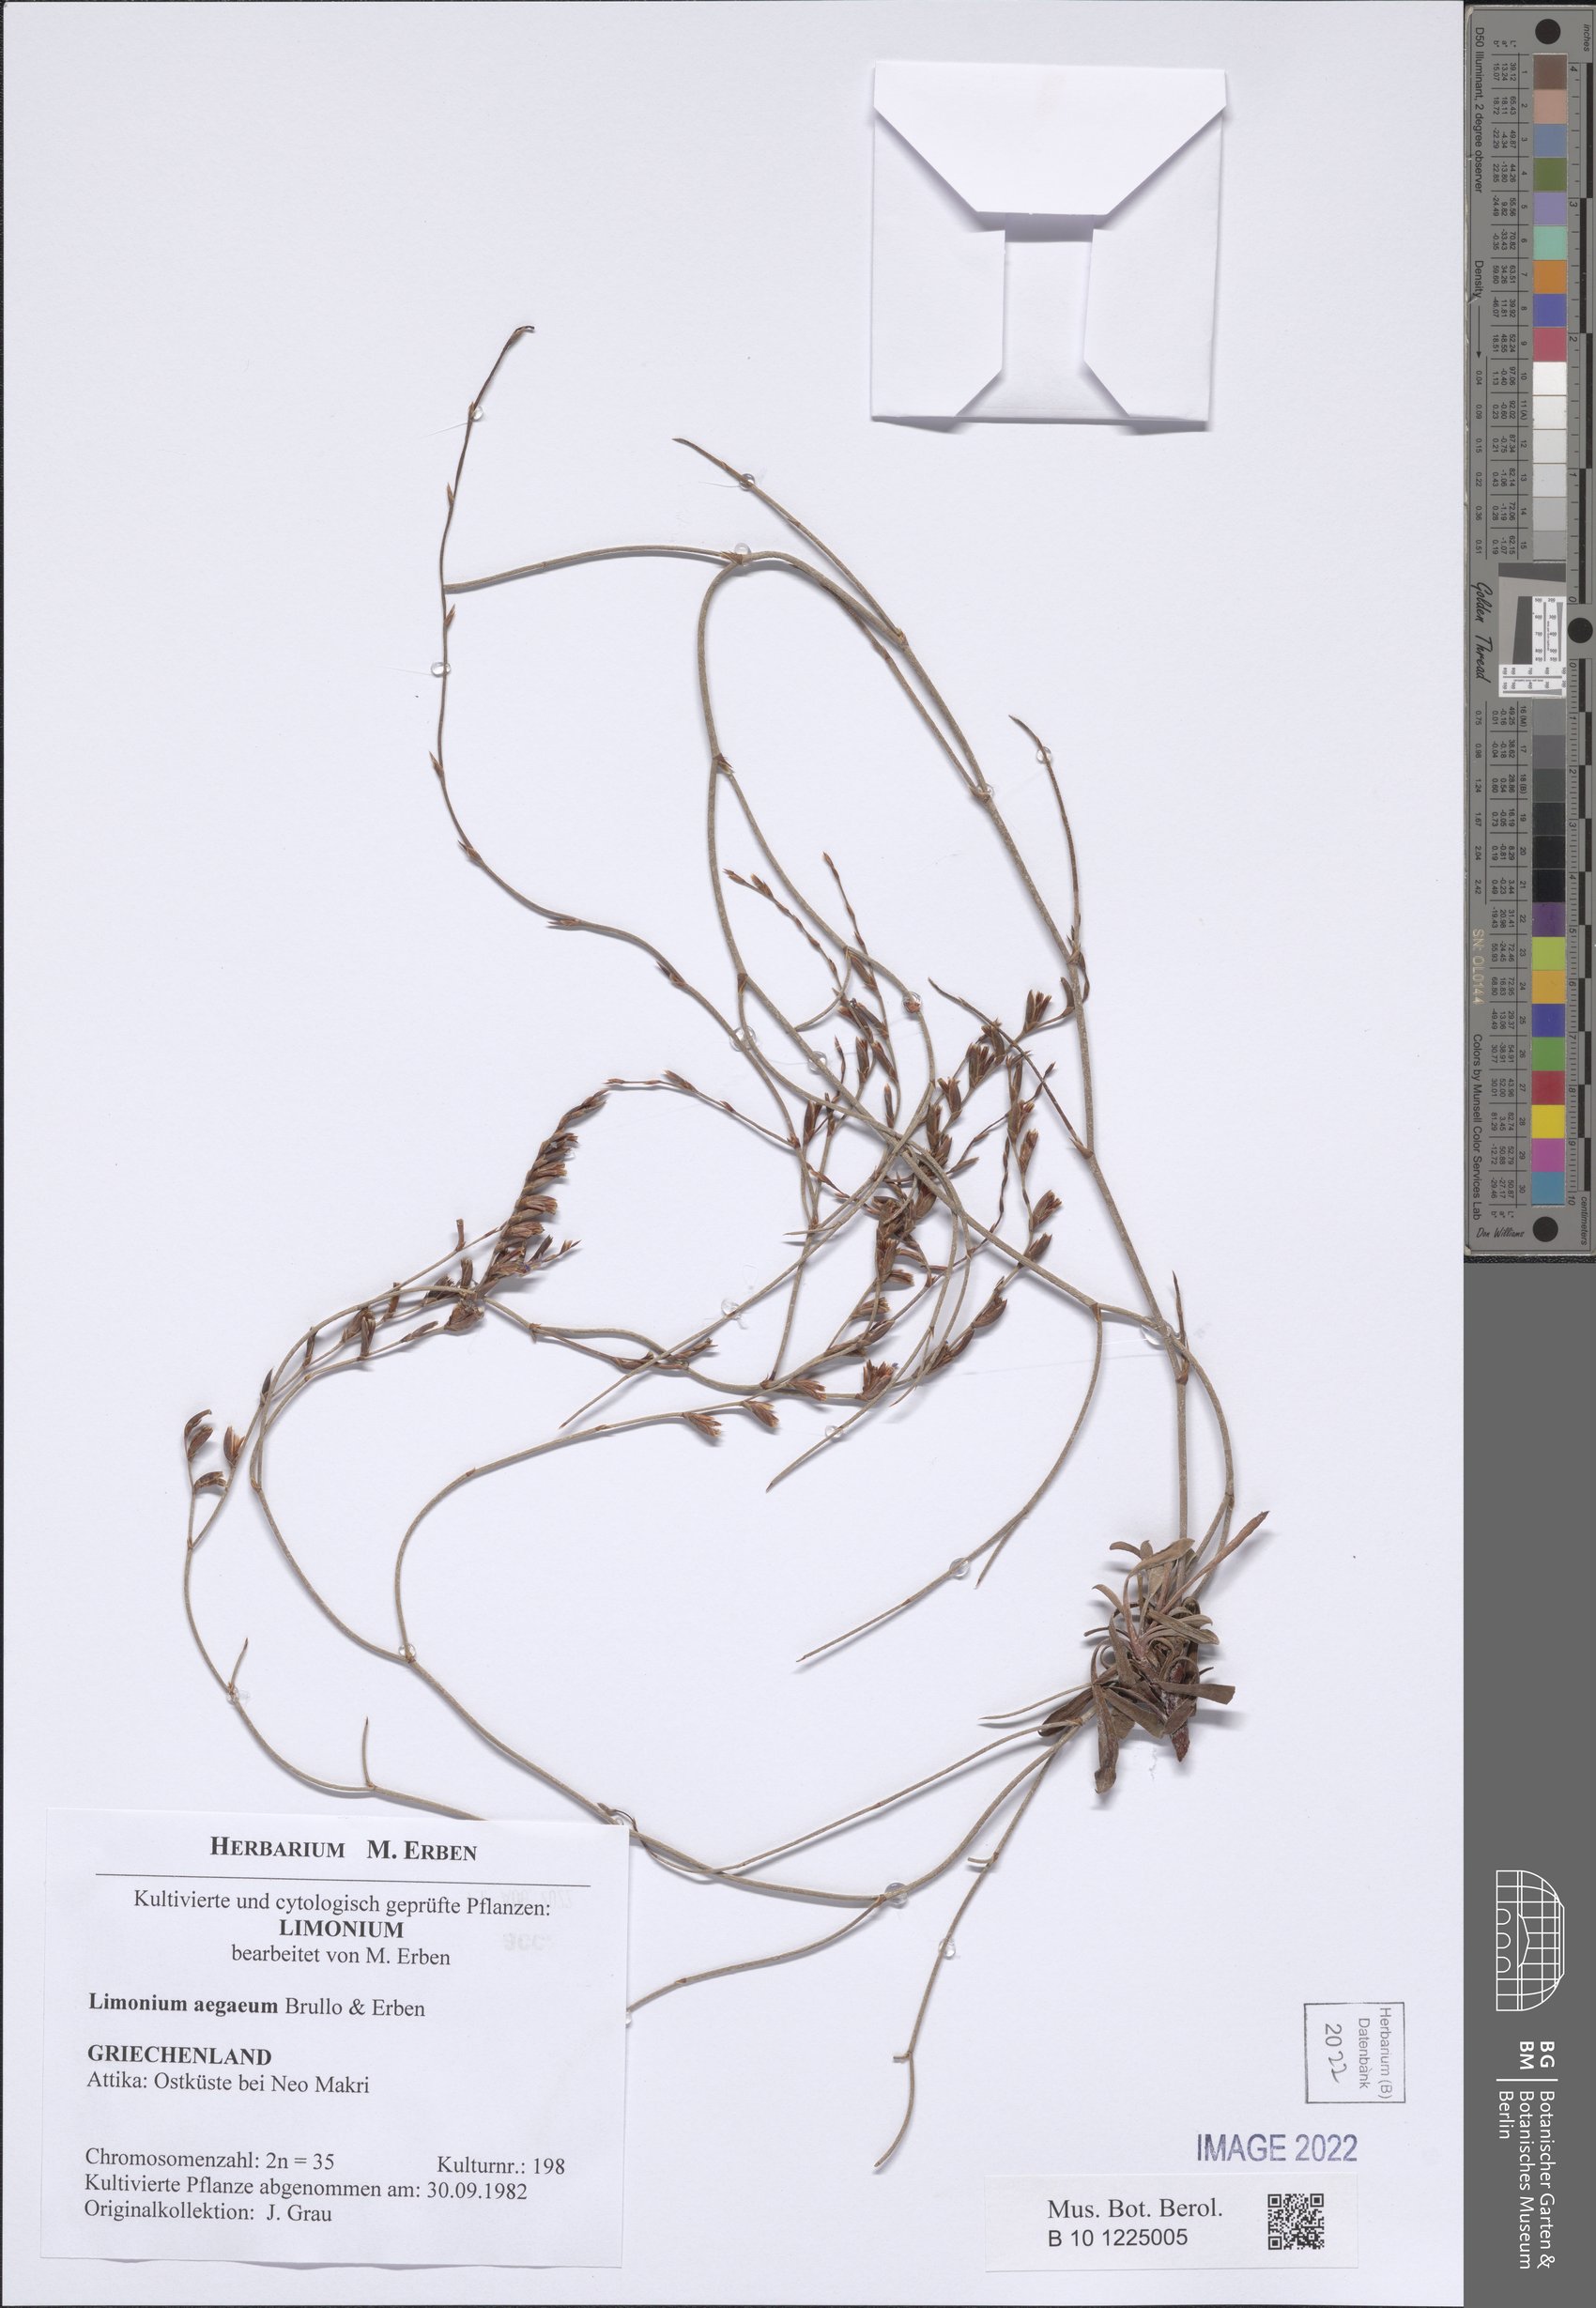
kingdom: Plantae
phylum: Tracheophyta
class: Magnoliopsida
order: Caryophyllales
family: Plumbaginaceae
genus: Limonium
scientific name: Limonium aegaeum
